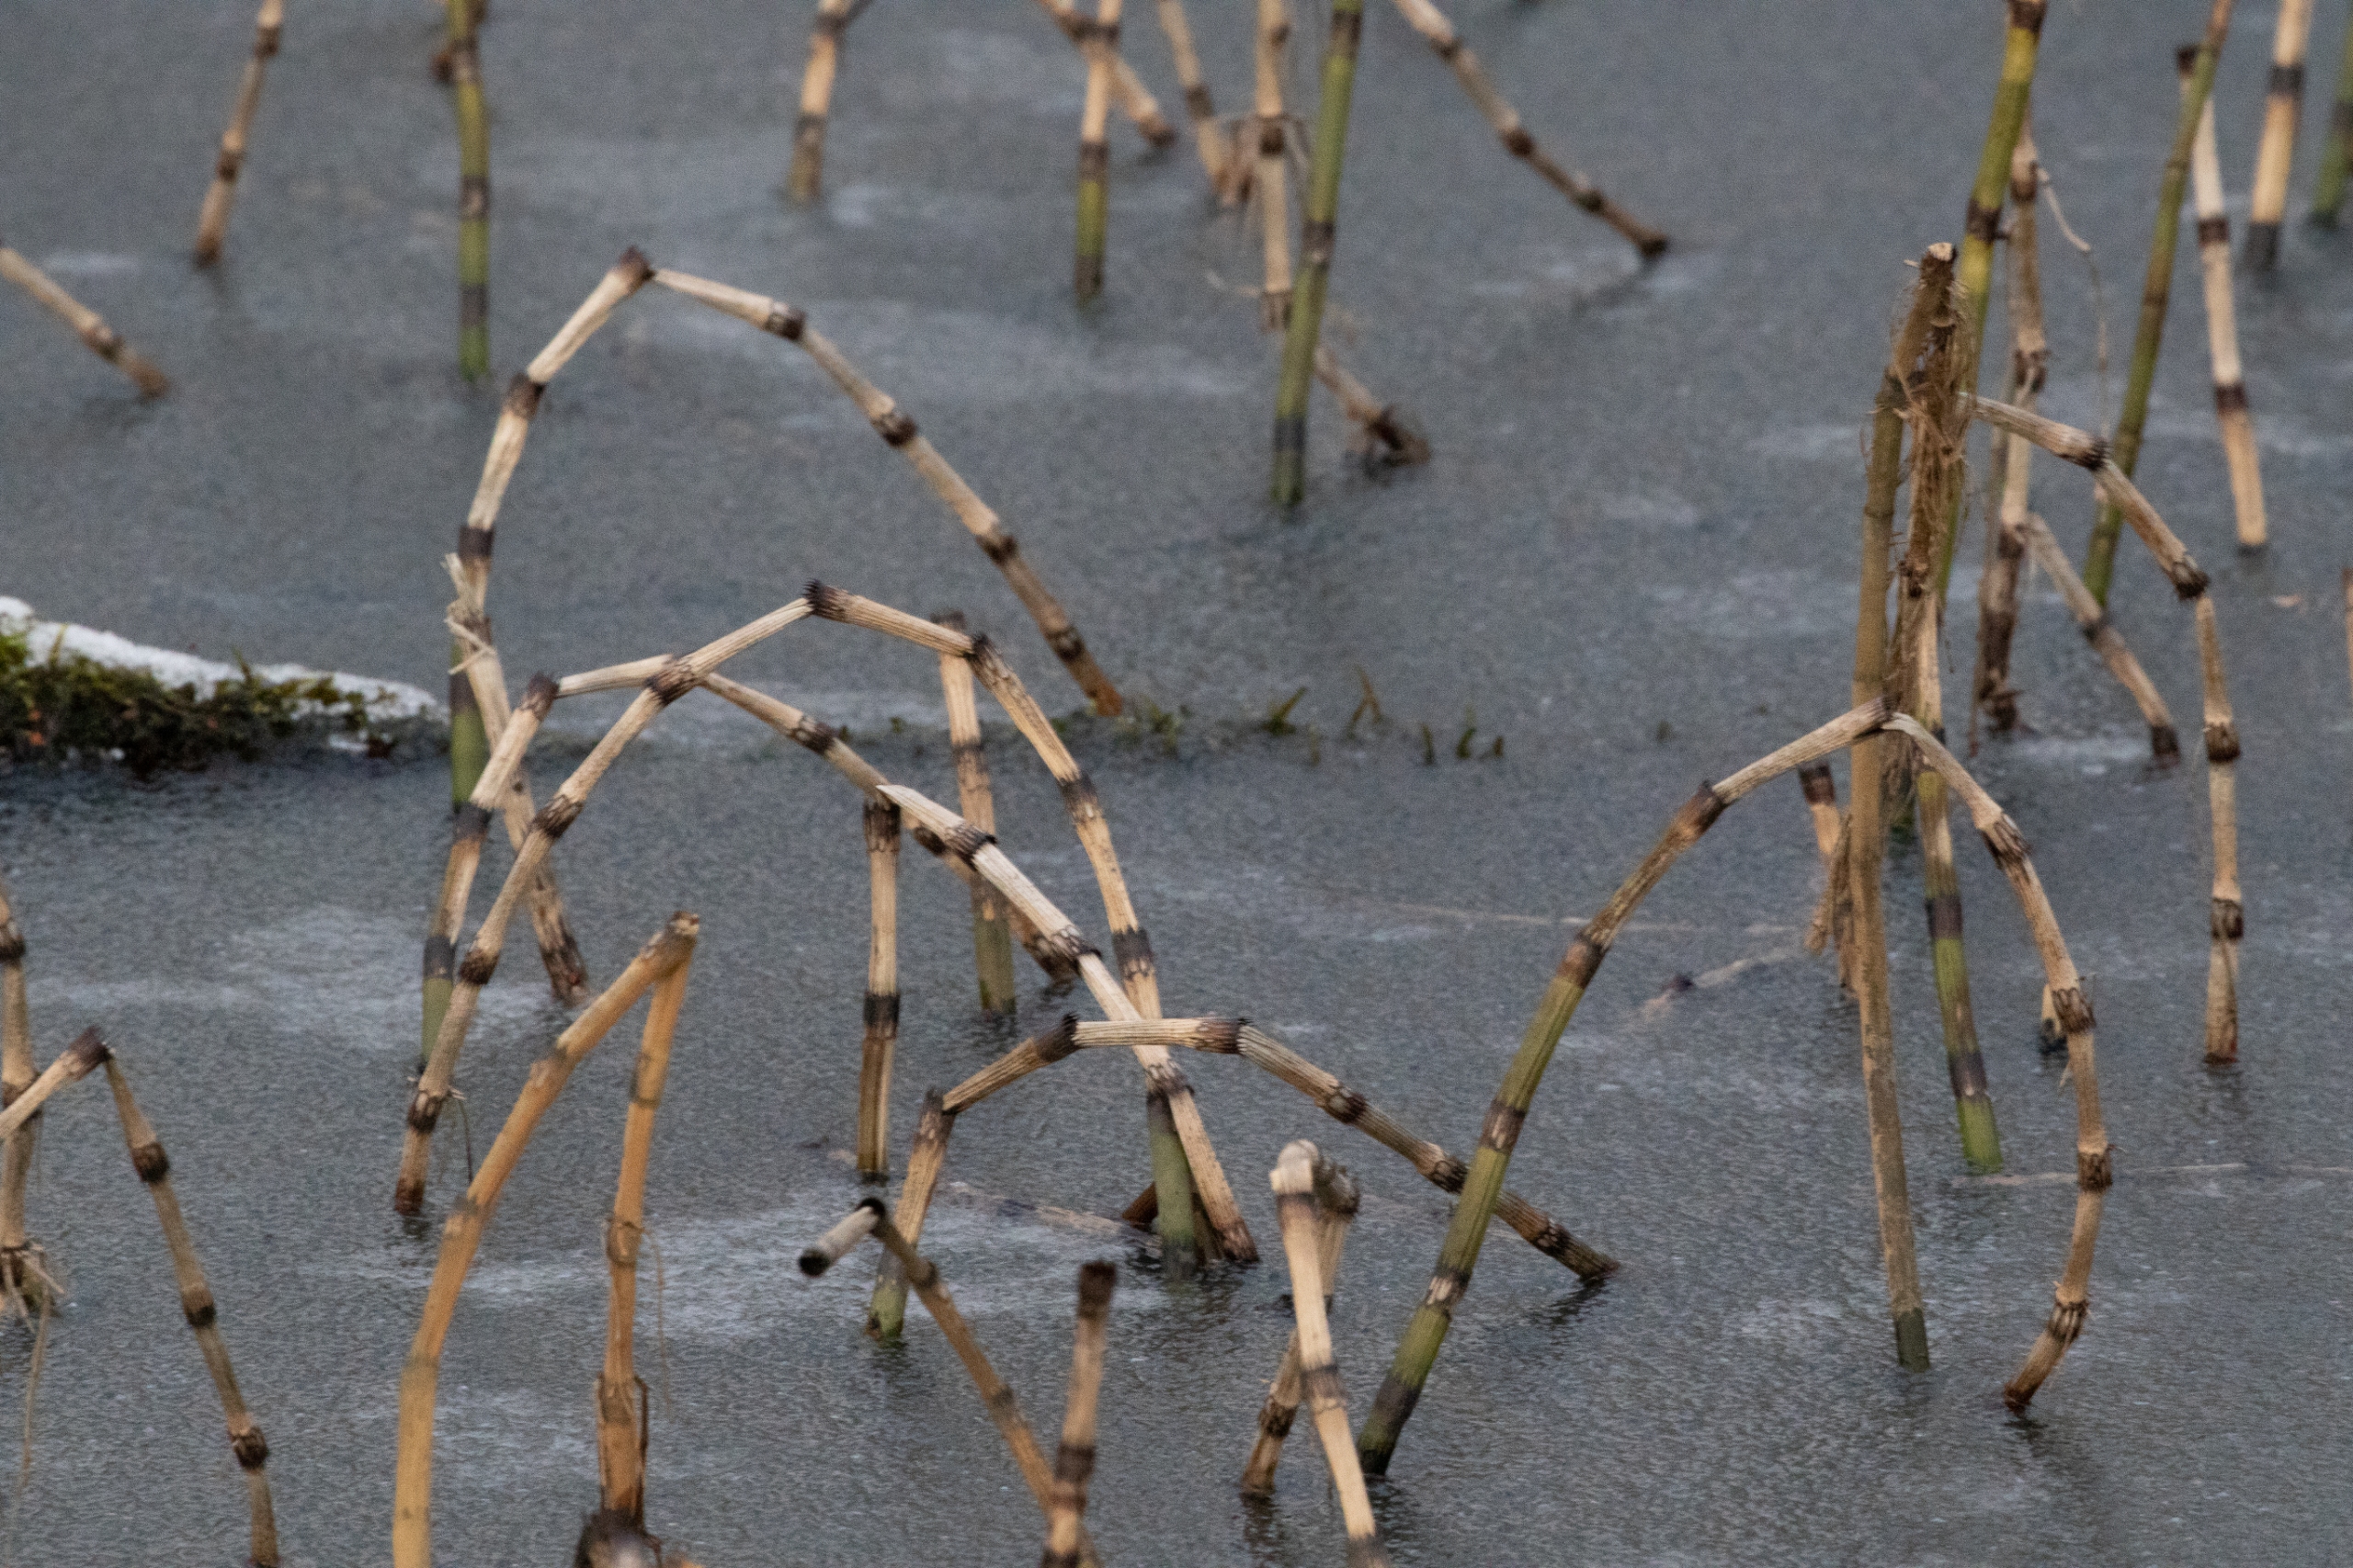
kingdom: Plantae
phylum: Tracheophyta
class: Polypodiopsida
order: Equisetales
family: Equisetaceae
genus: Equisetum
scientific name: Equisetum fluviatile
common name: Dynd-padderok
